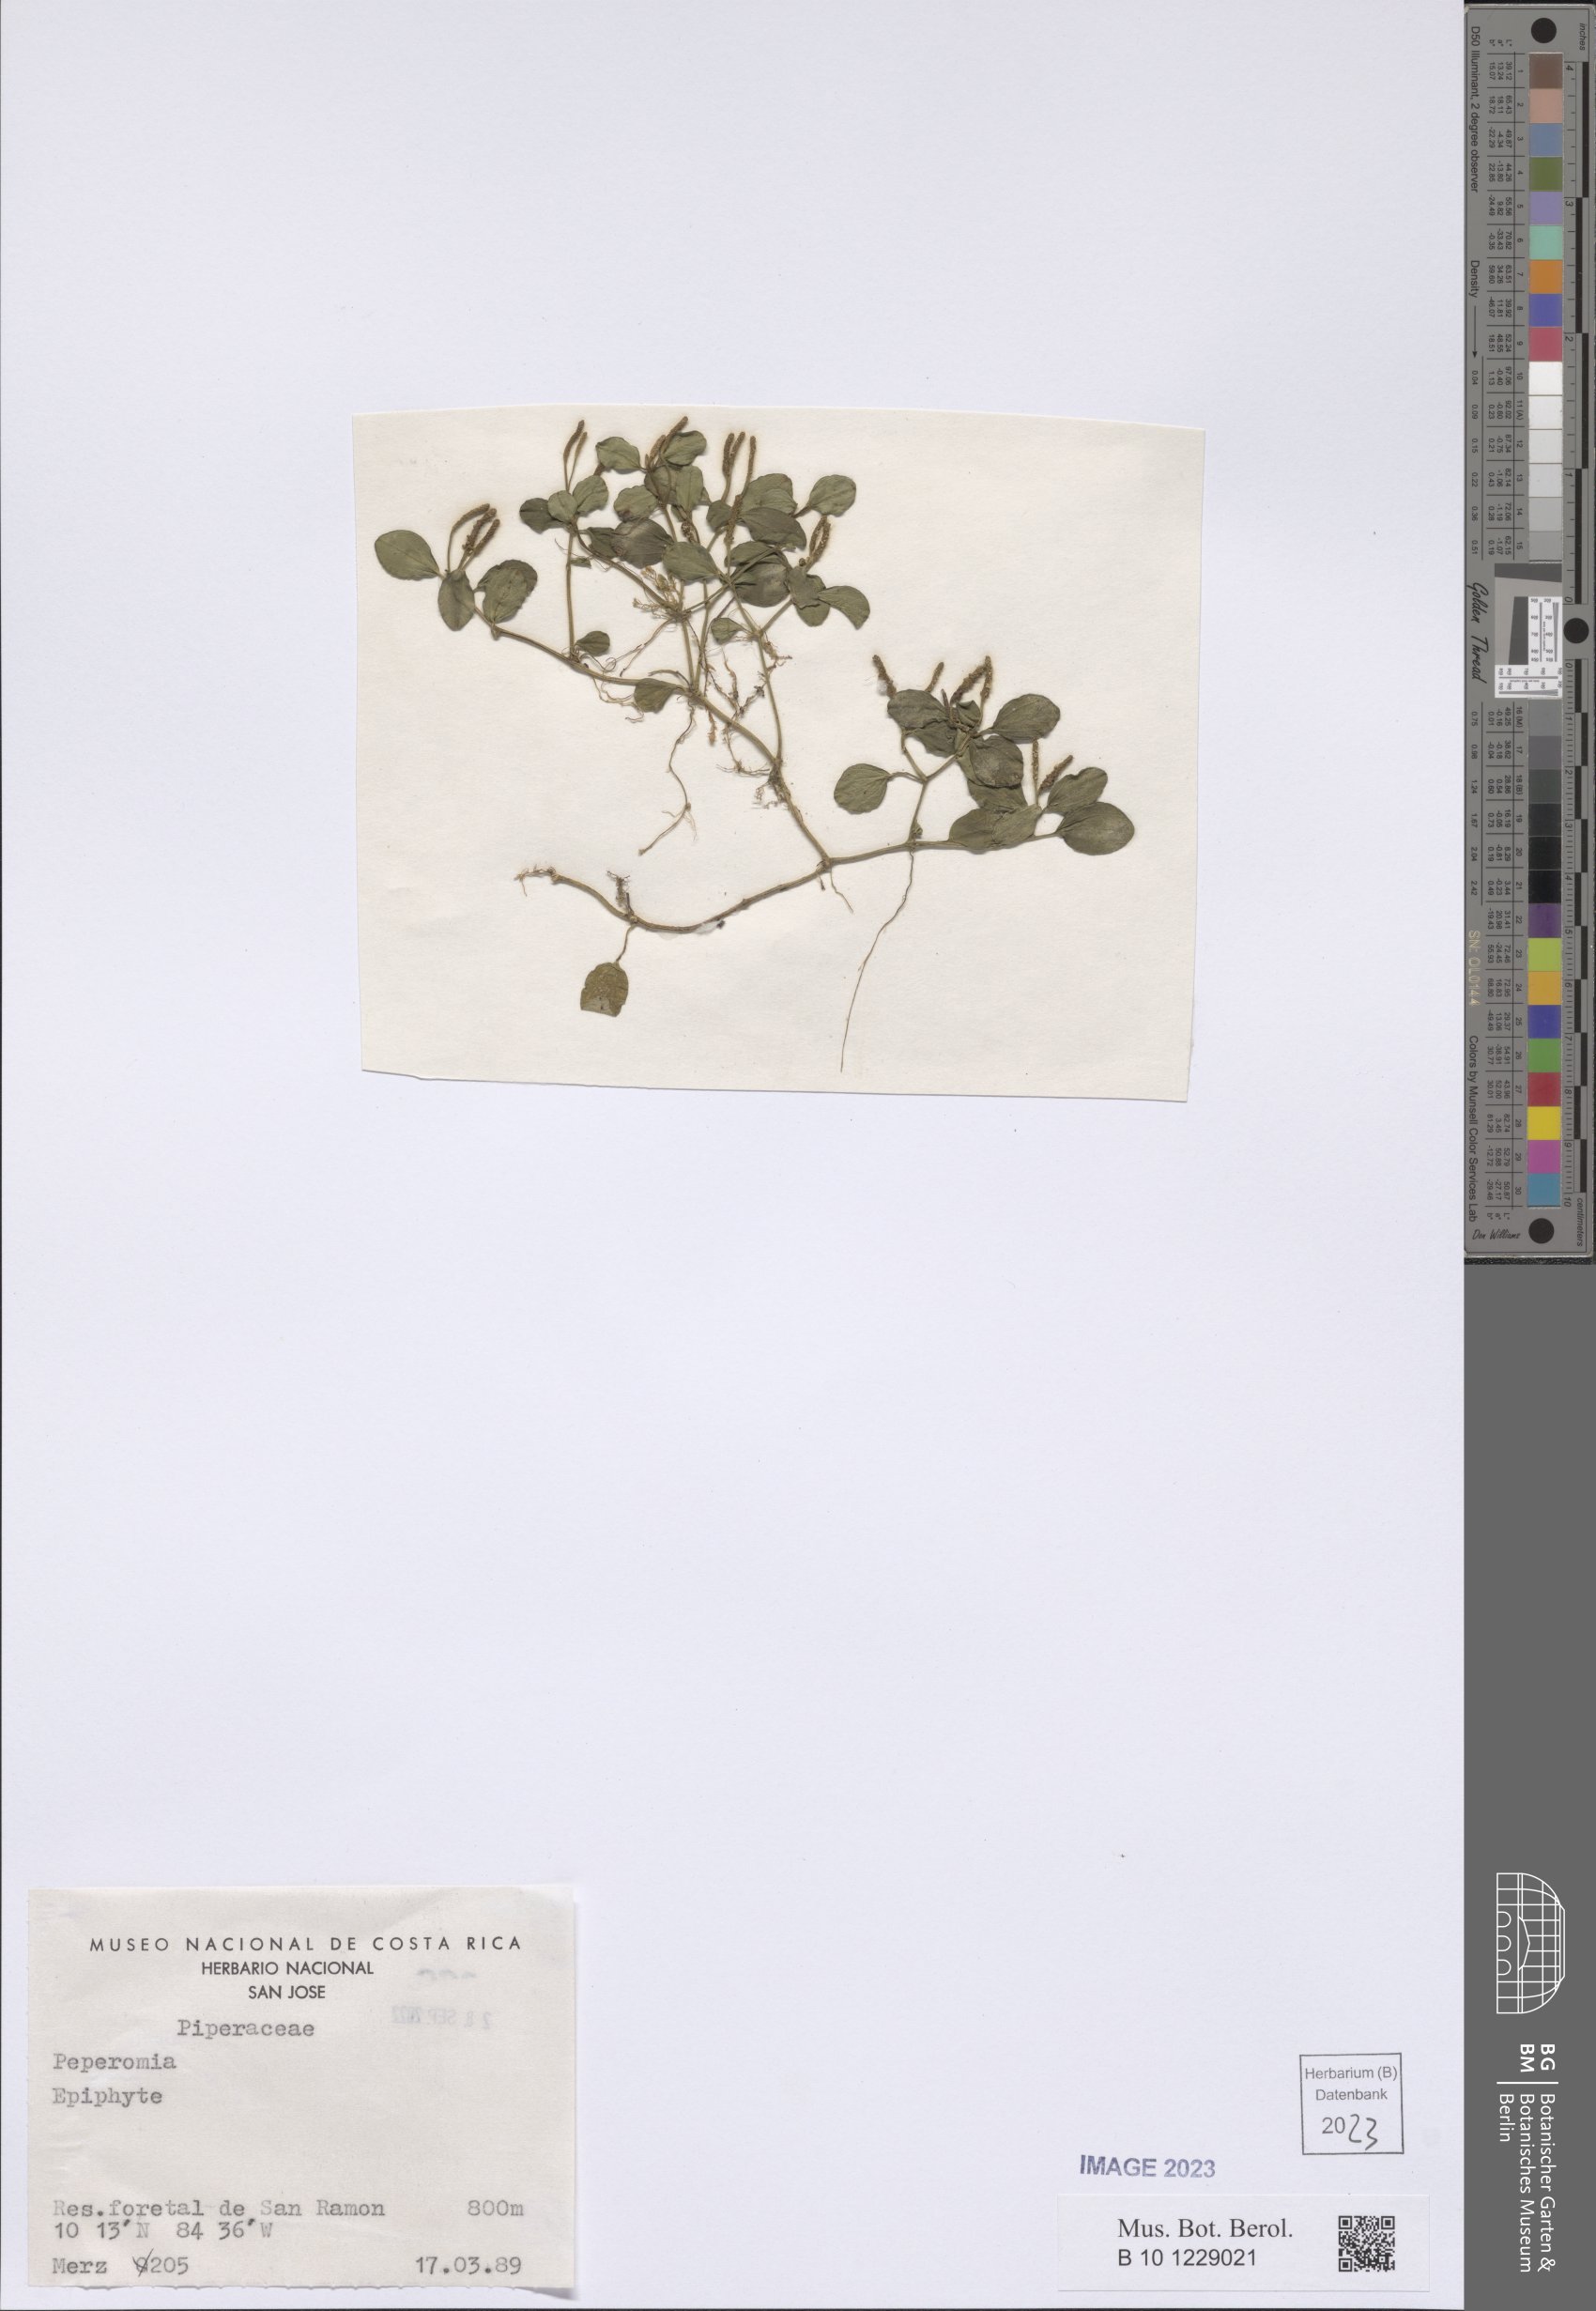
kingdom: Plantae
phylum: Tracheophyta
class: Magnoliopsida
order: Piperales
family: Piperaceae
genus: Peperomia
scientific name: Peperomia
